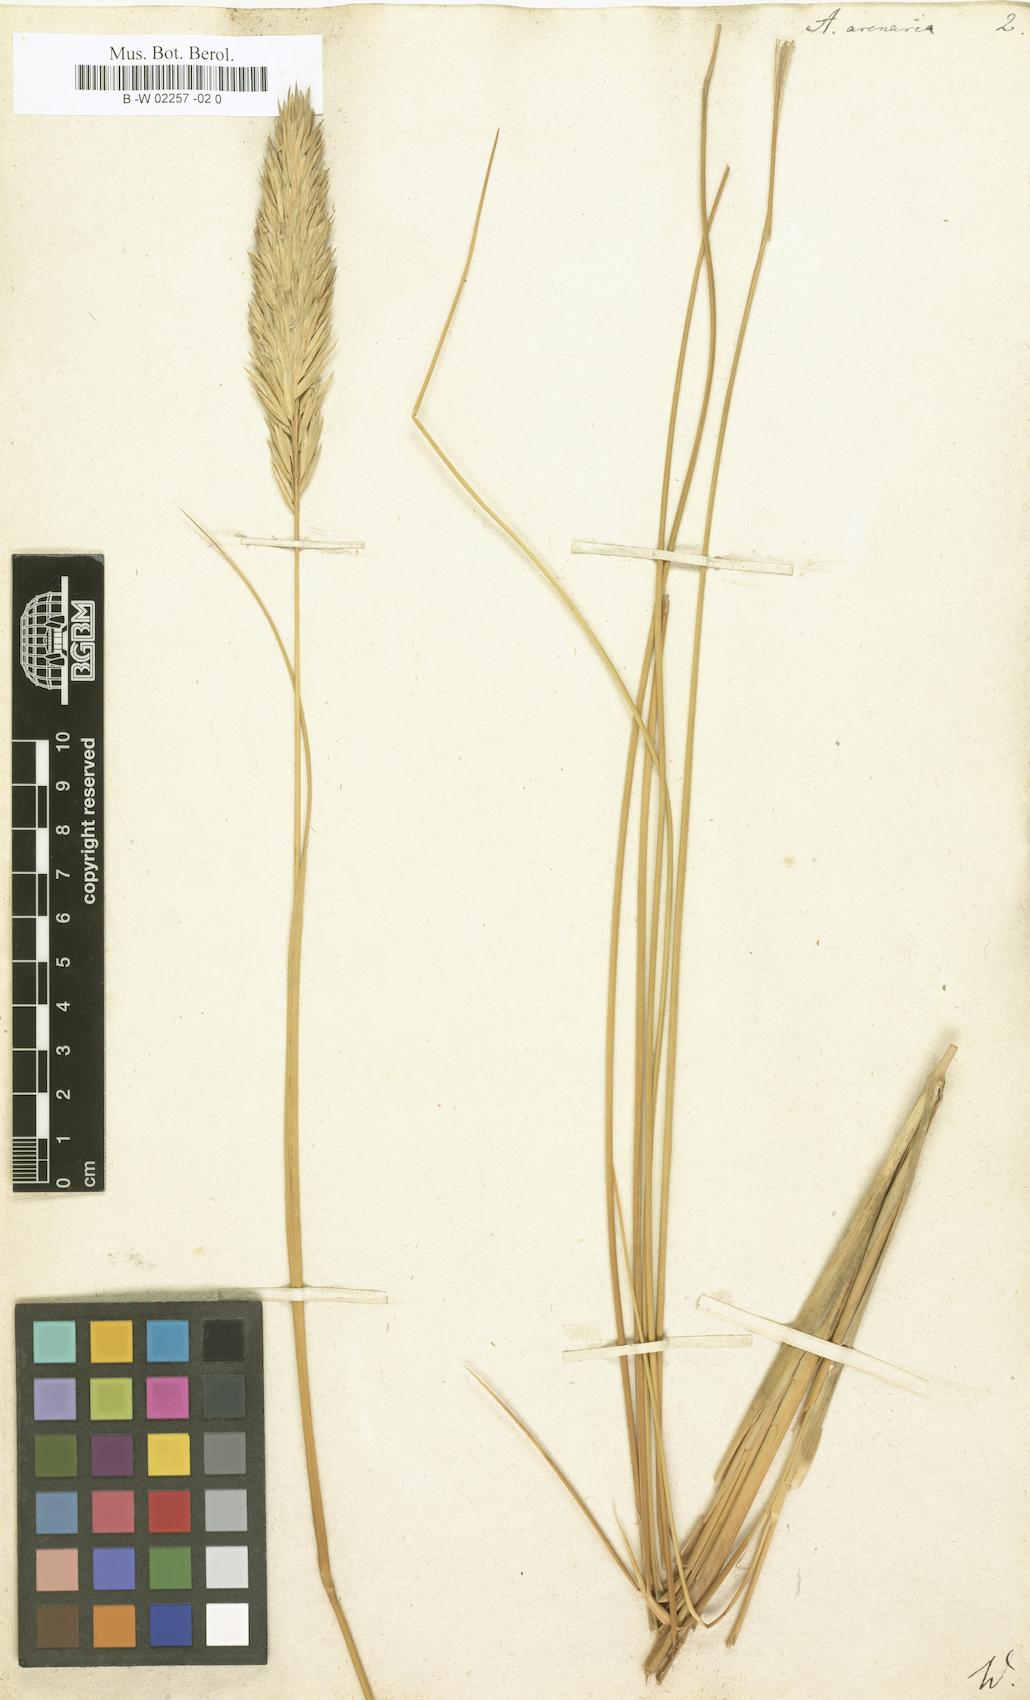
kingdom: Plantae
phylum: Tracheophyta
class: Liliopsida
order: Poales
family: Poaceae
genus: Arundo
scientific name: Arundo arenaria
